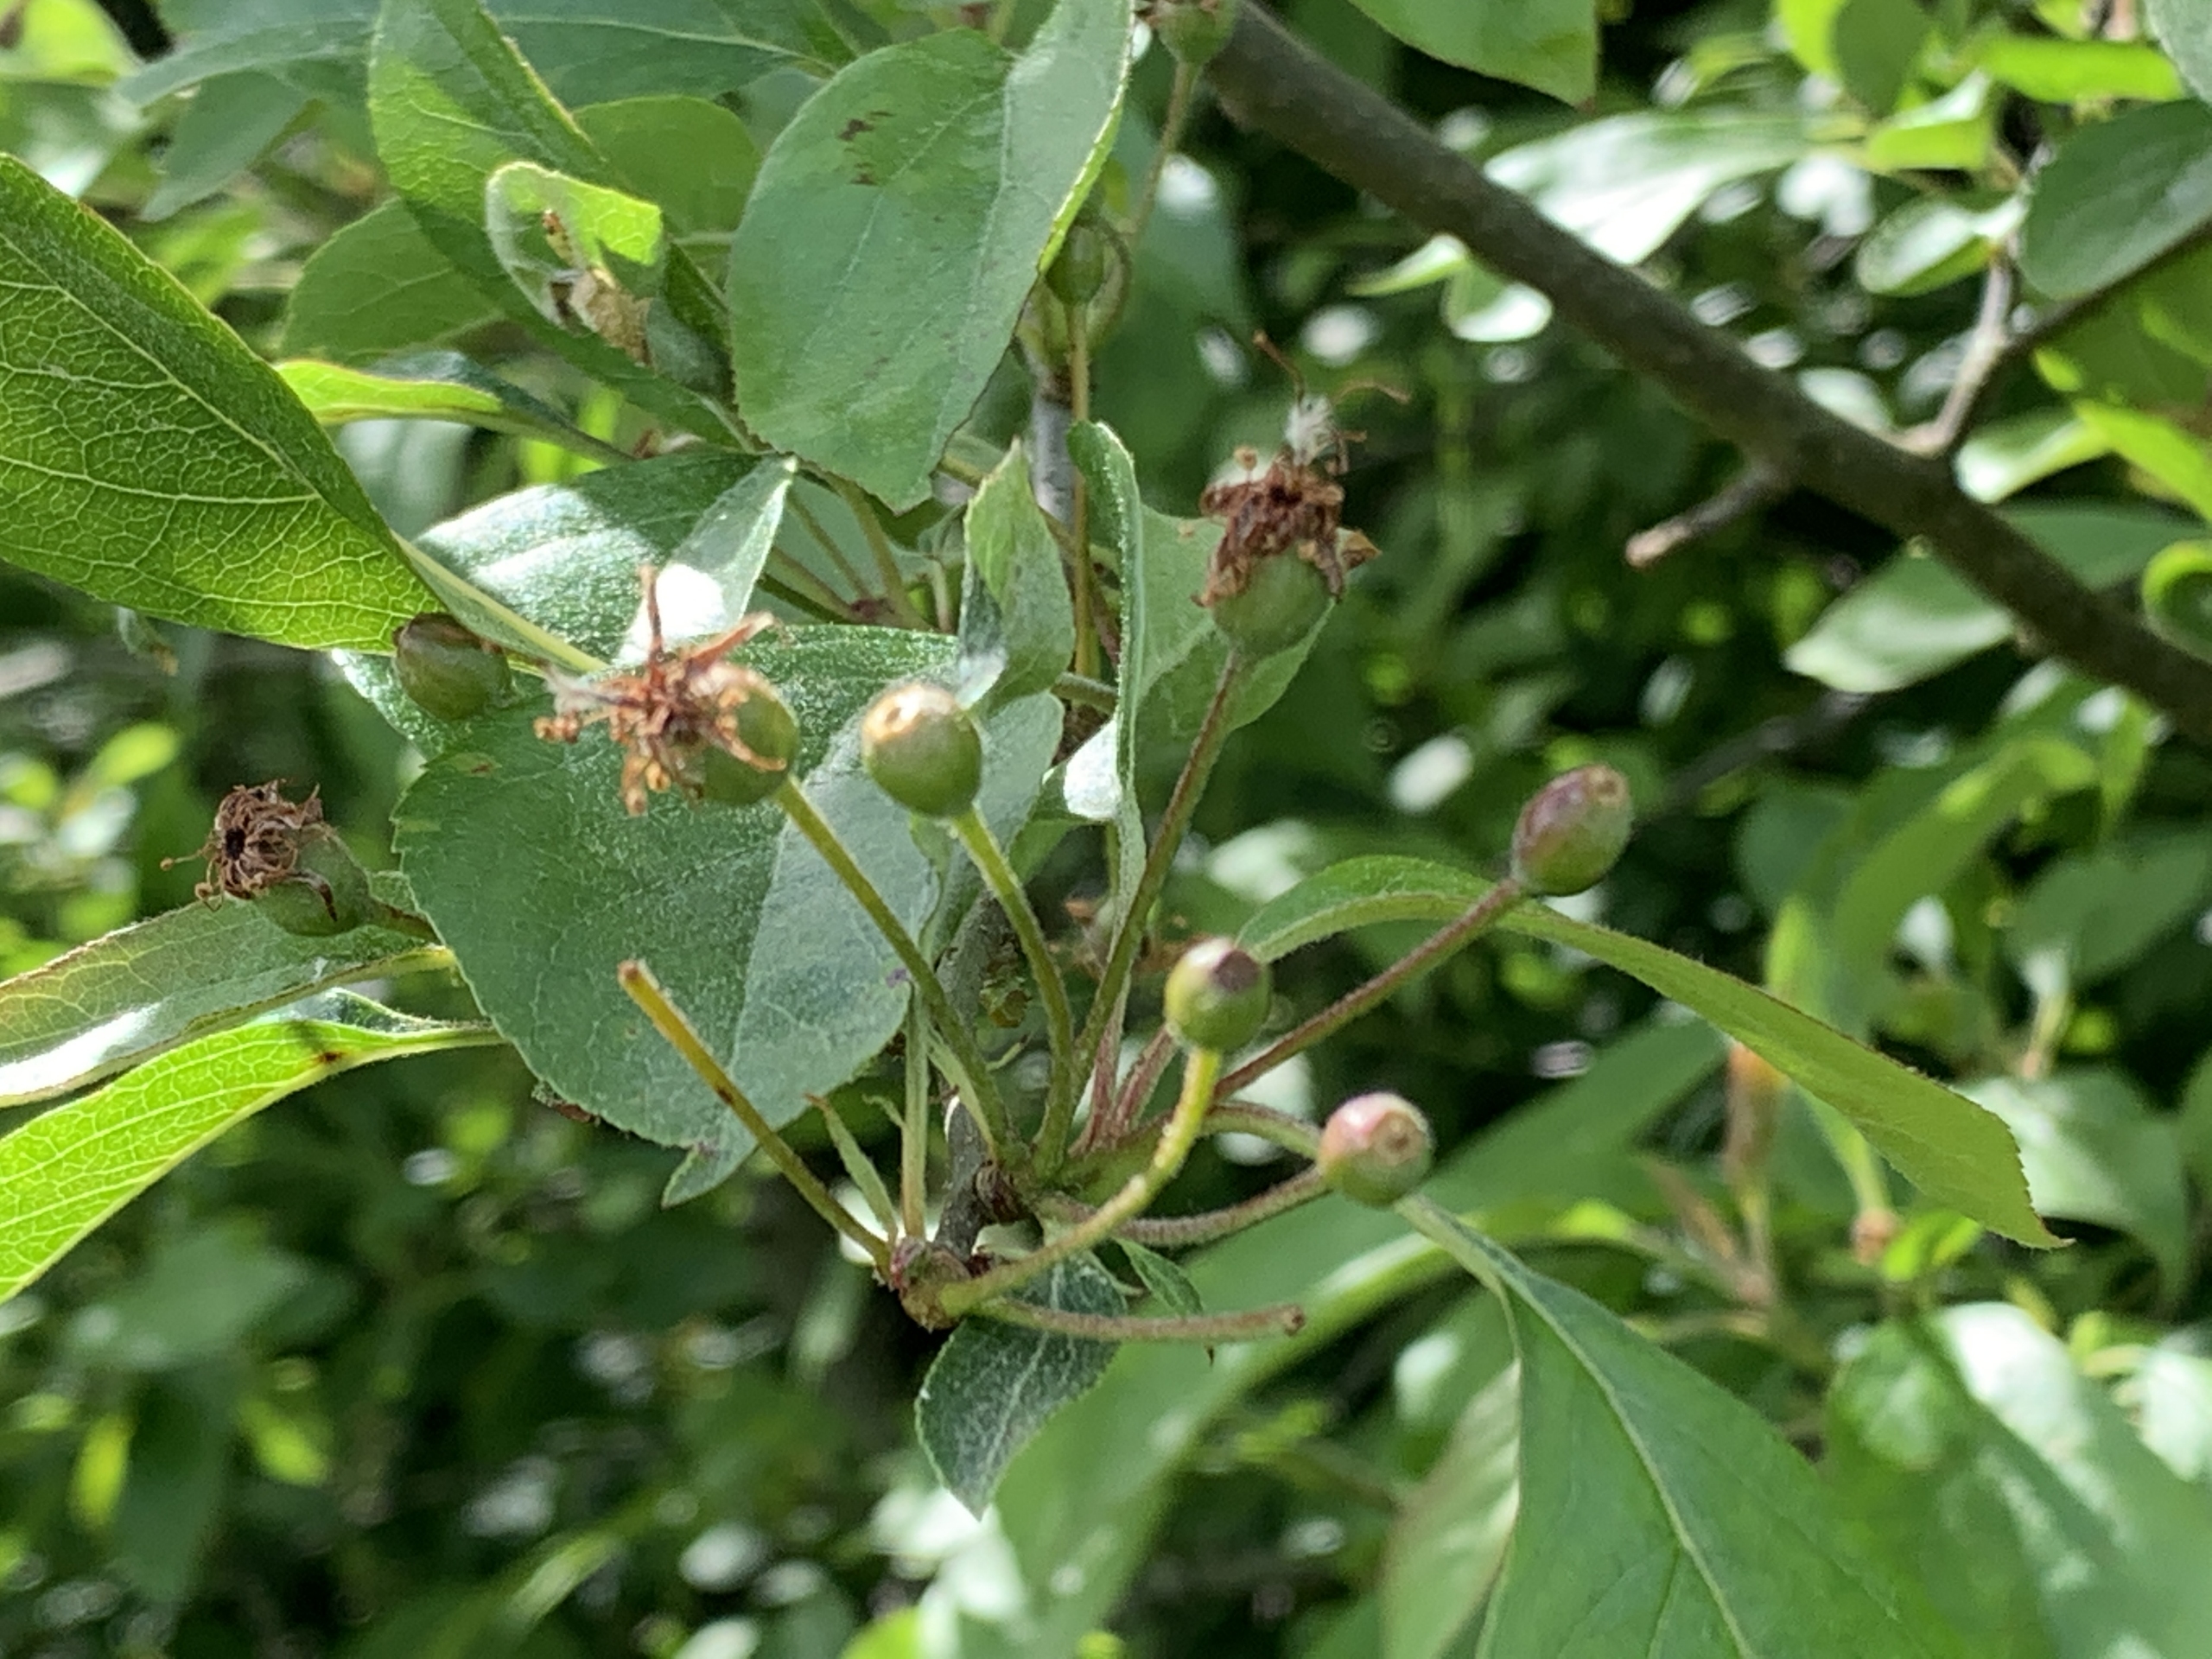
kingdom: Plantae
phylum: Tracheophyta
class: Magnoliopsida
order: Rosales
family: Rosaceae
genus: Malus
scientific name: Malus floribunda
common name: Japansk paradisæble
